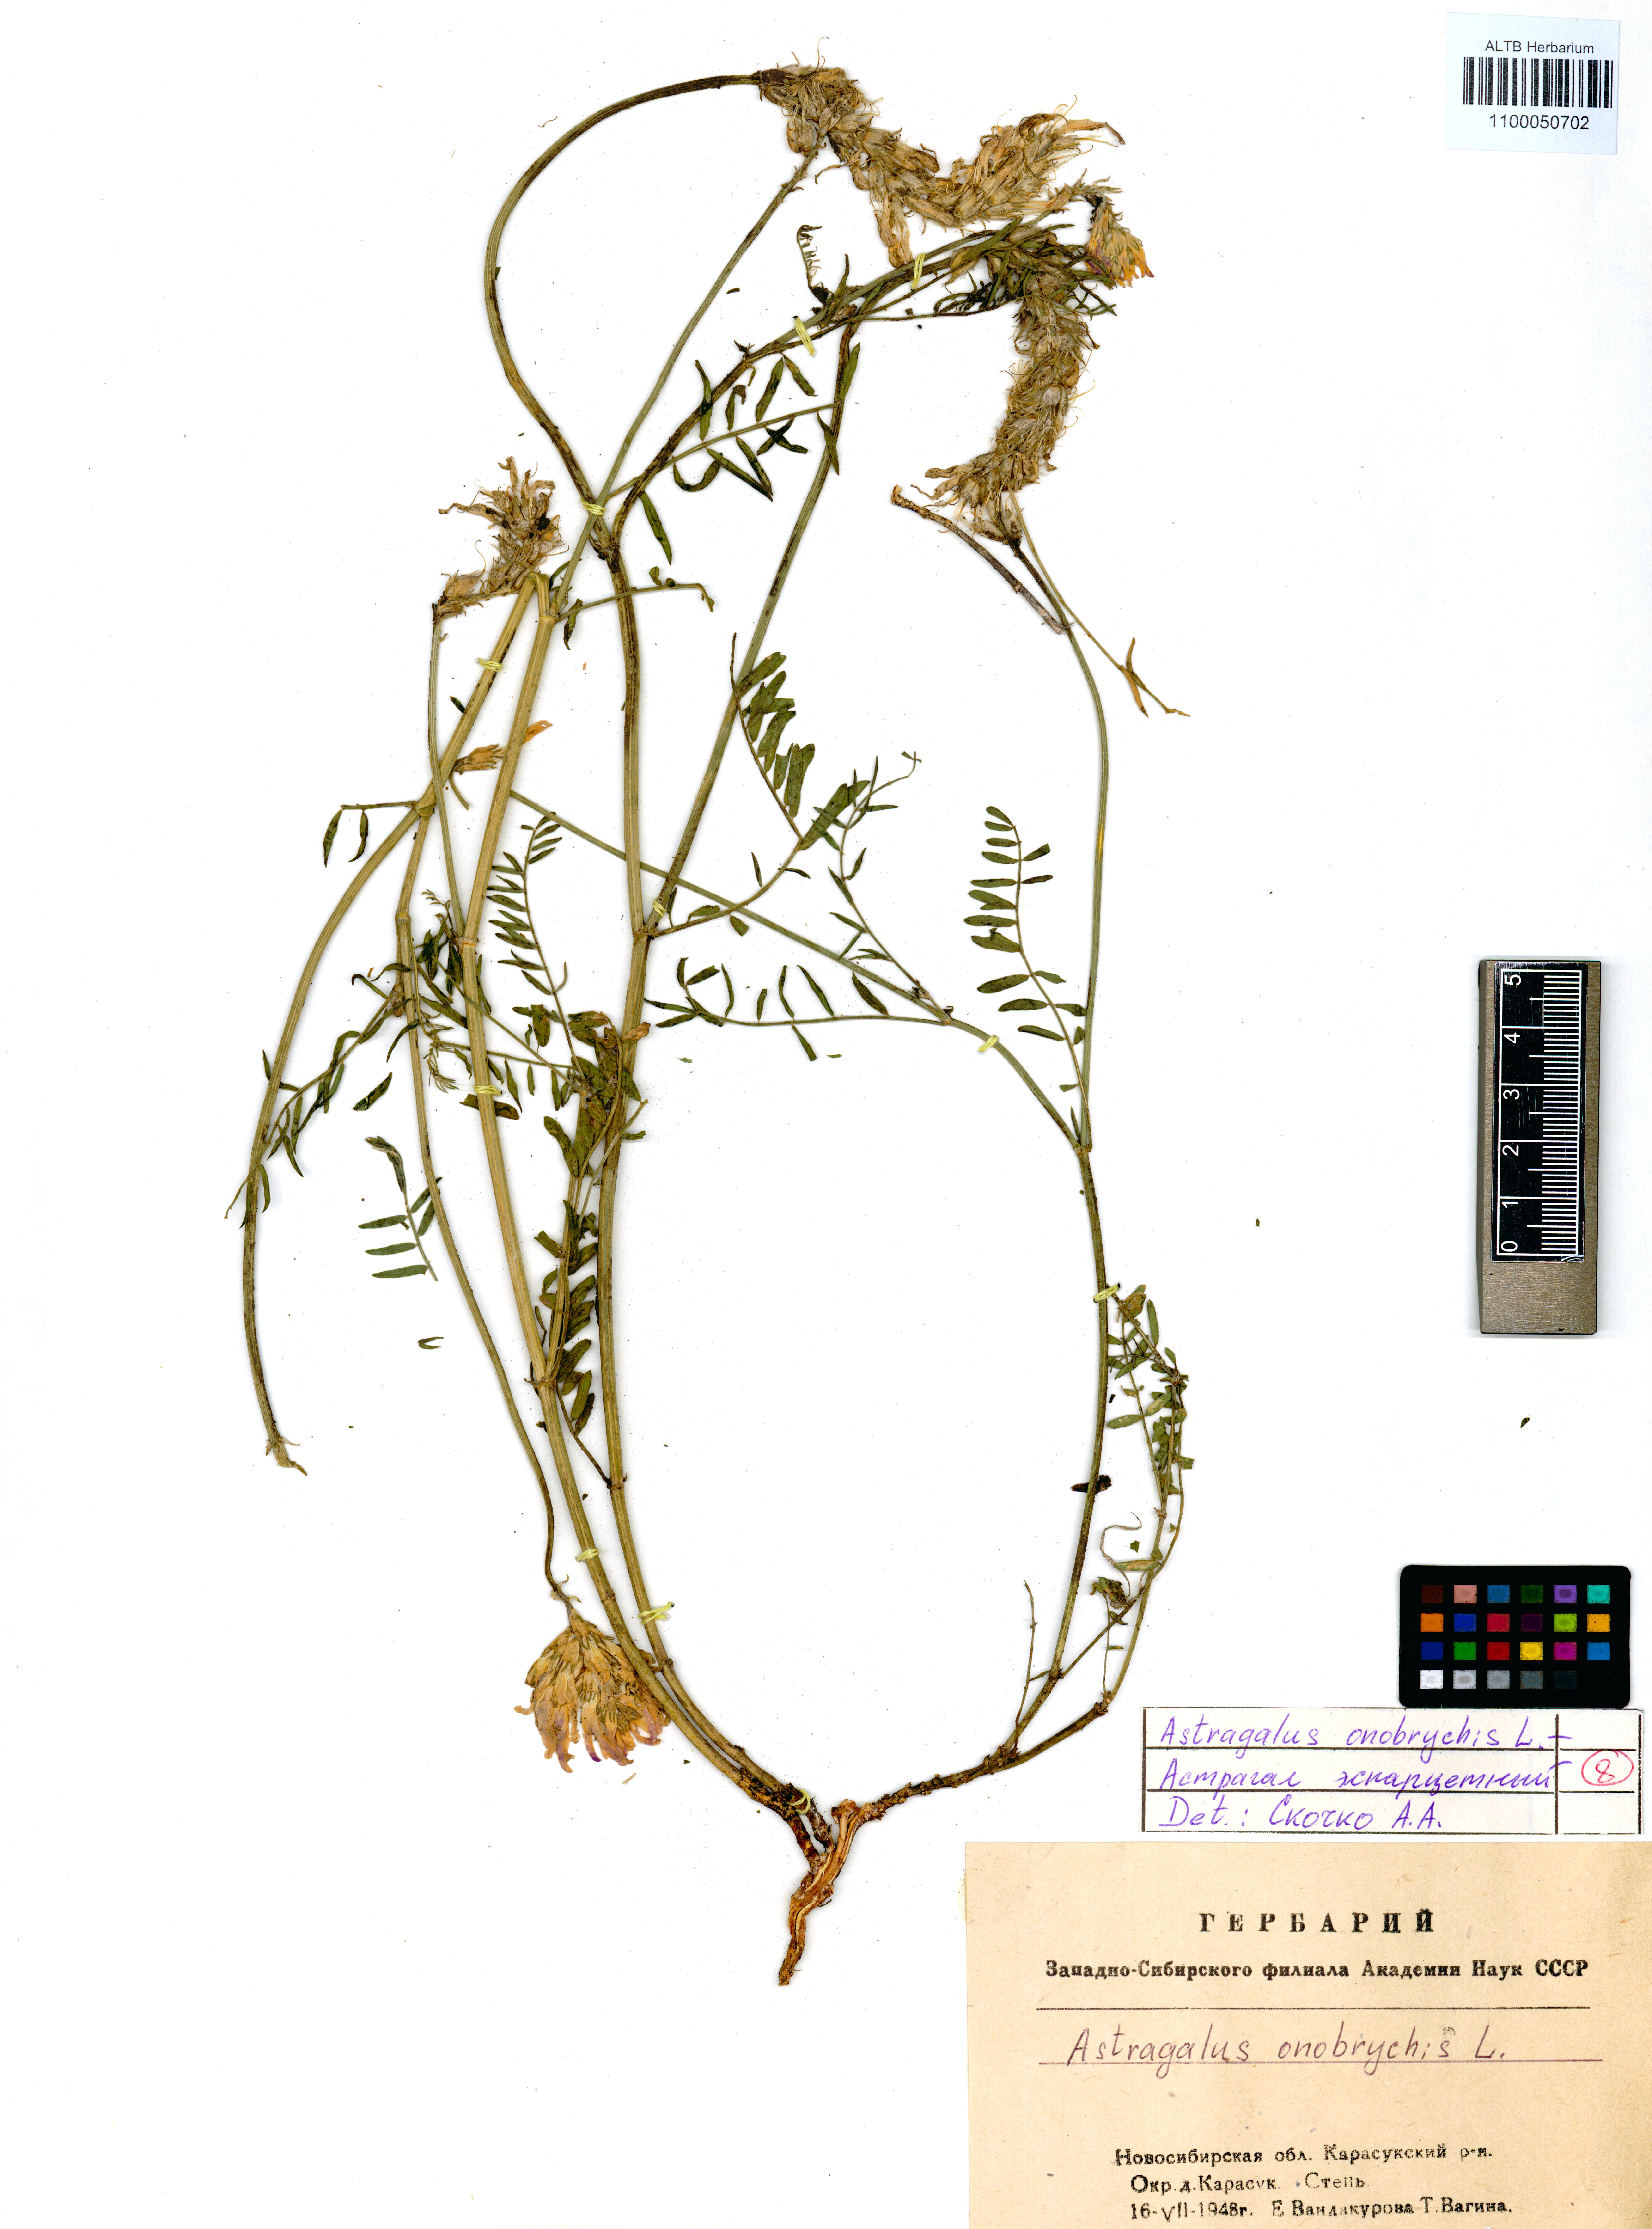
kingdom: Plantae
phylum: Tracheophyta
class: Magnoliopsida
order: Fabales
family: Fabaceae
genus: Astragalus
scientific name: Astragalus onobrychis
